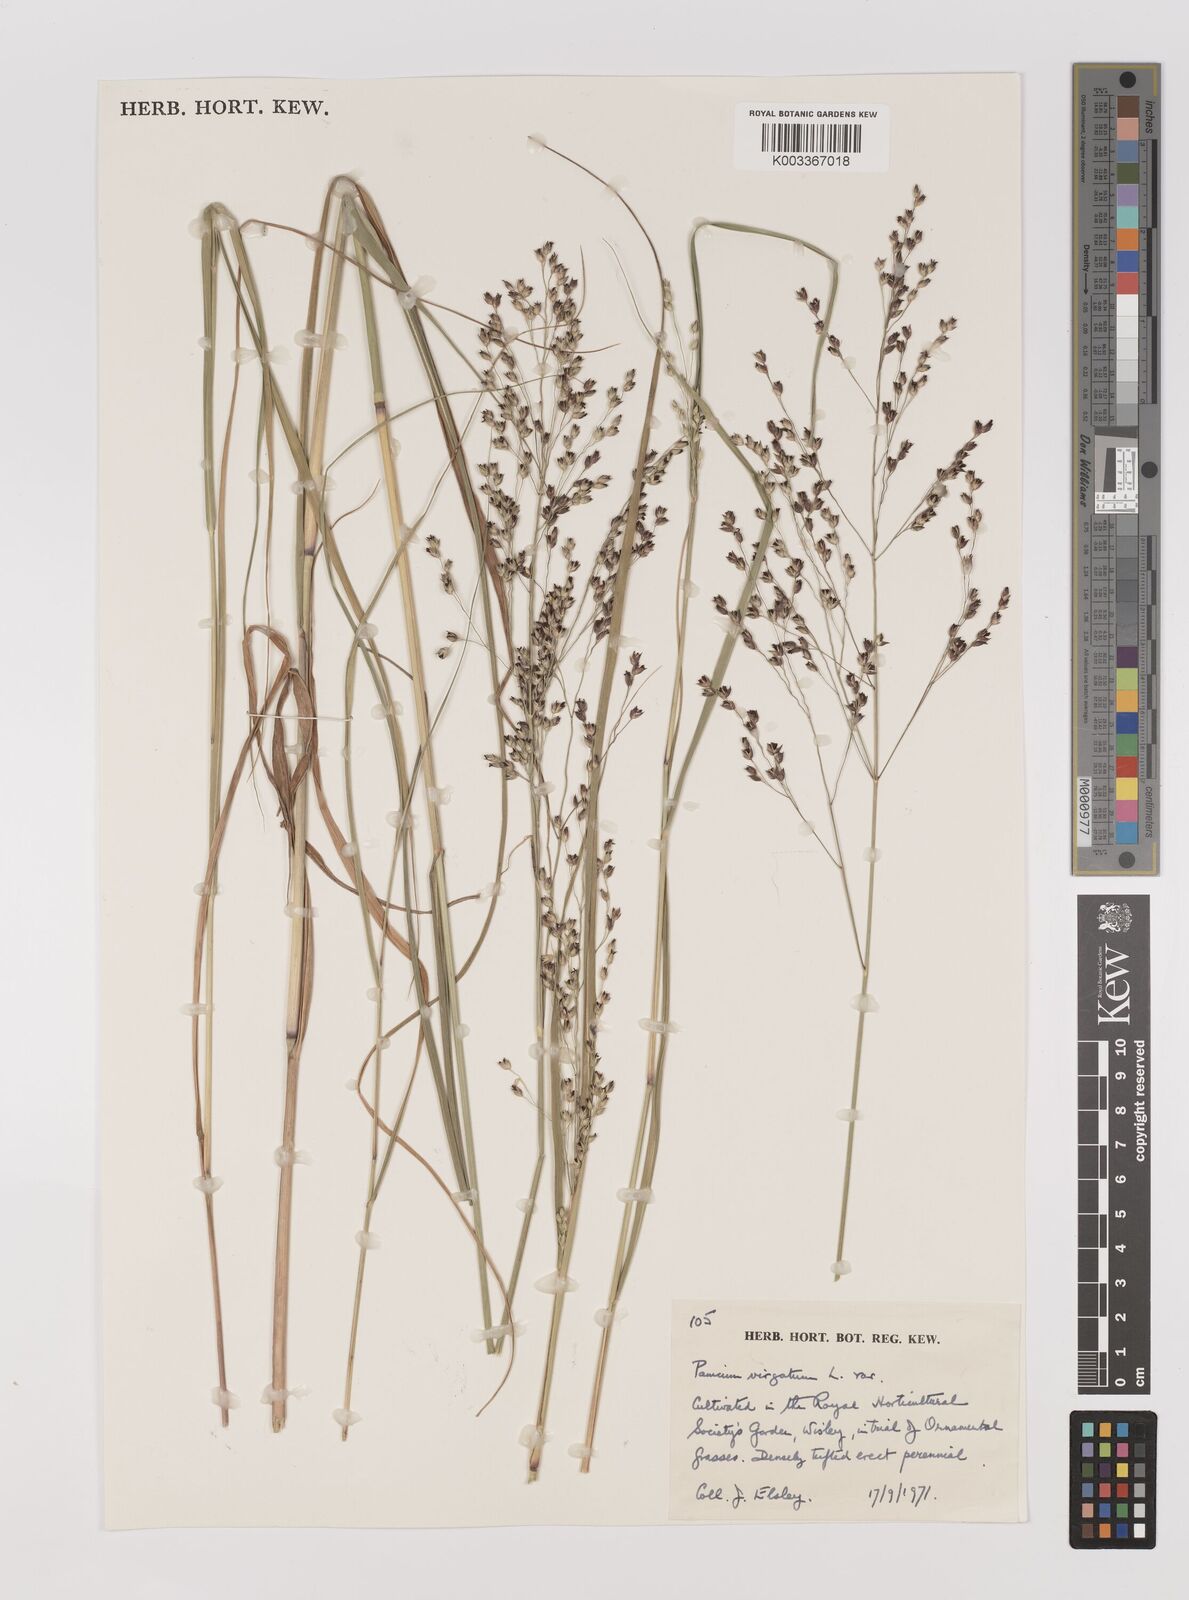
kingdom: Plantae
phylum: Tracheophyta
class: Liliopsida
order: Poales
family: Poaceae
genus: Panicum
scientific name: Panicum virgatum
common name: Switchgrass
